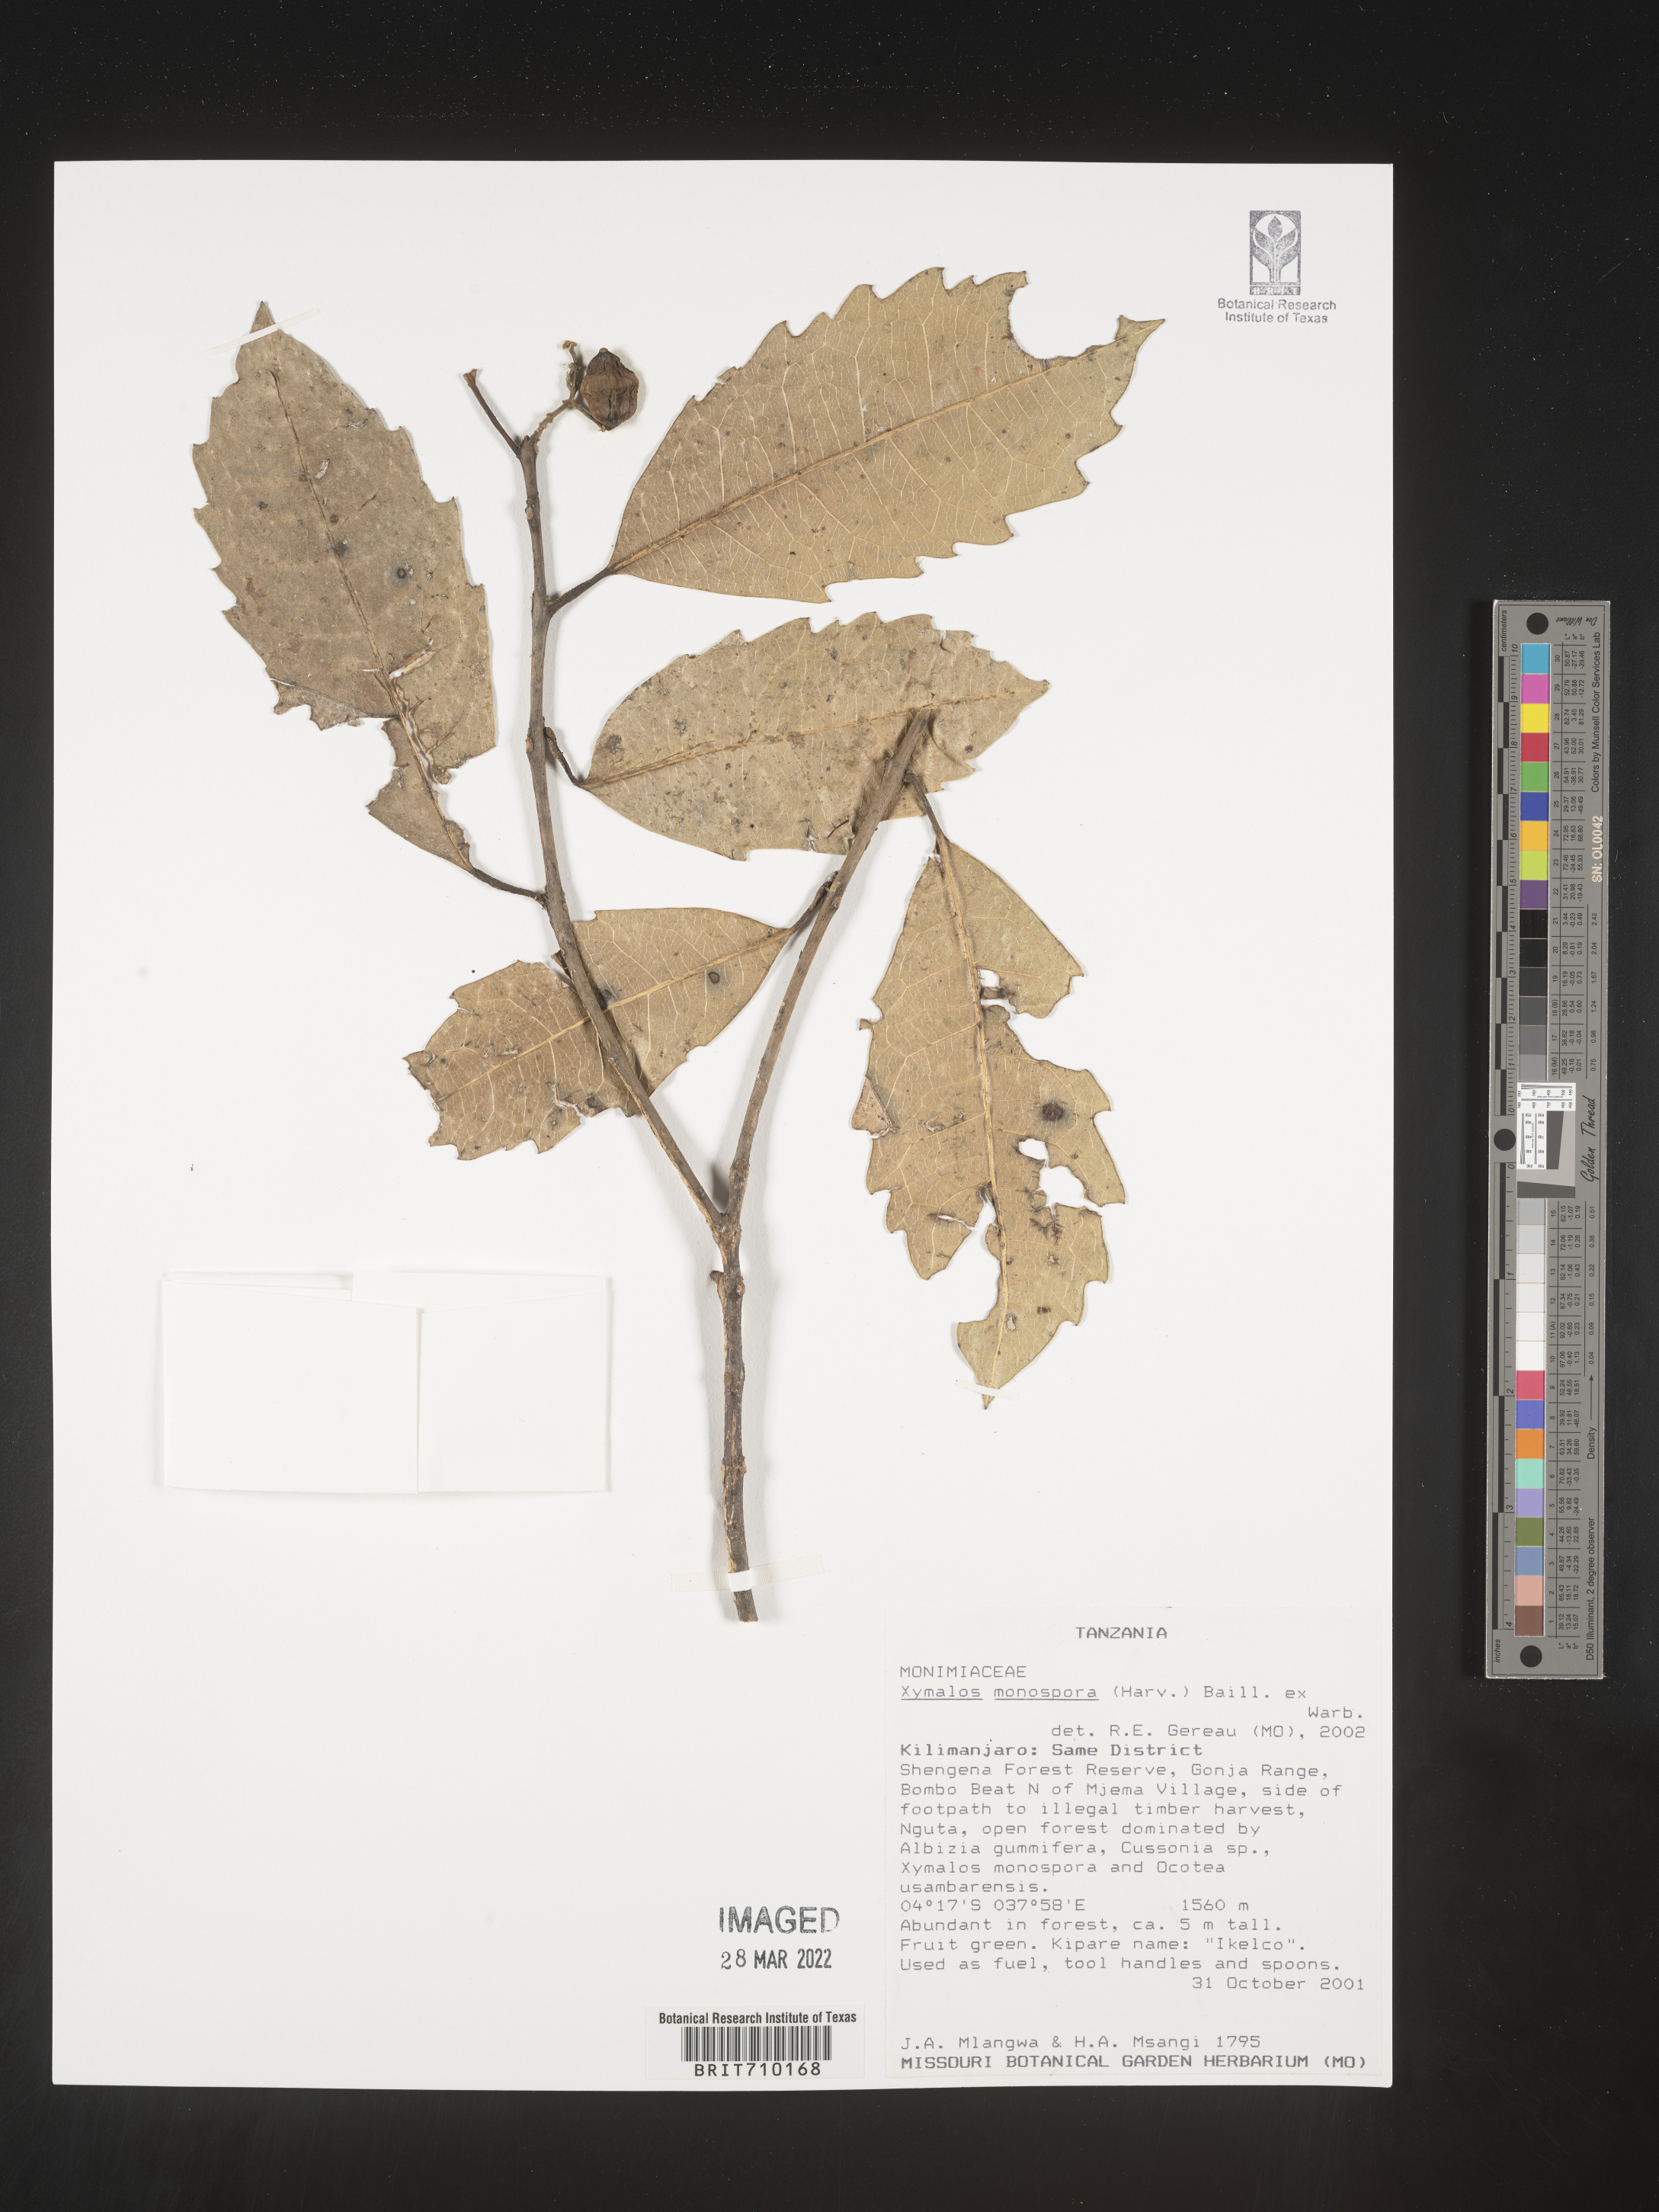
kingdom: Plantae
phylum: Tracheophyta
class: Magnoliopsida
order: Laurales
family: Monimiaceae
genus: Xymalos
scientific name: Xymalos
